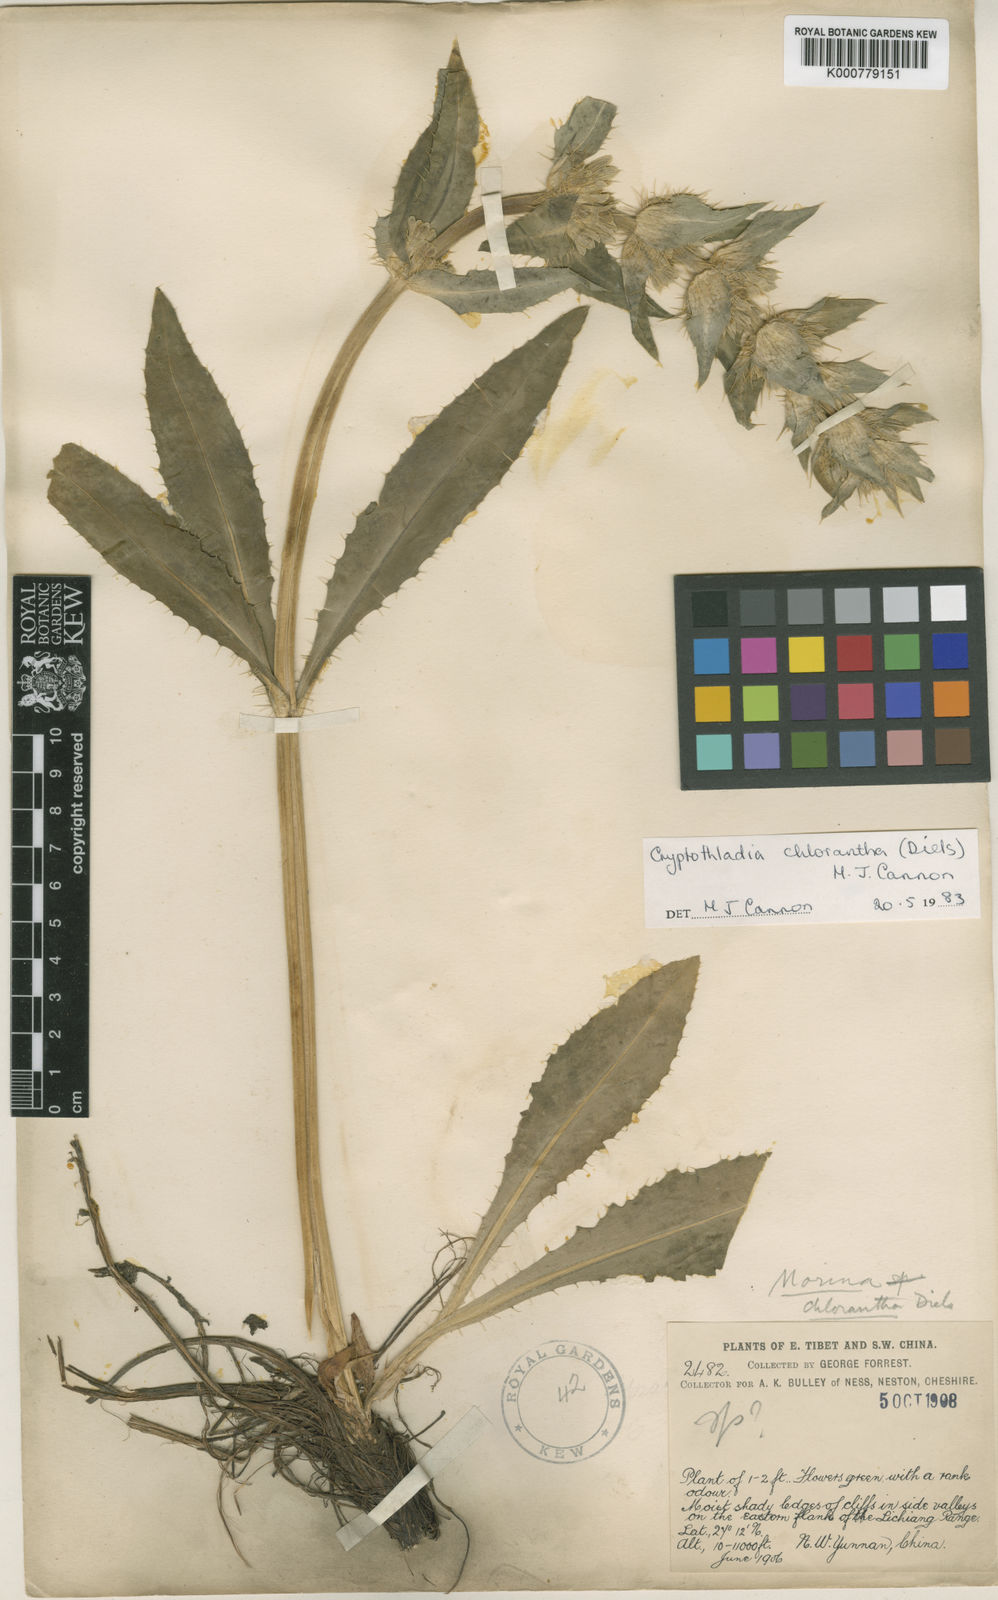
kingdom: Plantae
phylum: Tracheophyta
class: Magnoliopsida
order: Dipsacales
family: Caprifoliaceae
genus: Cryptothladia
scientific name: Cryptothladia chlorantha
